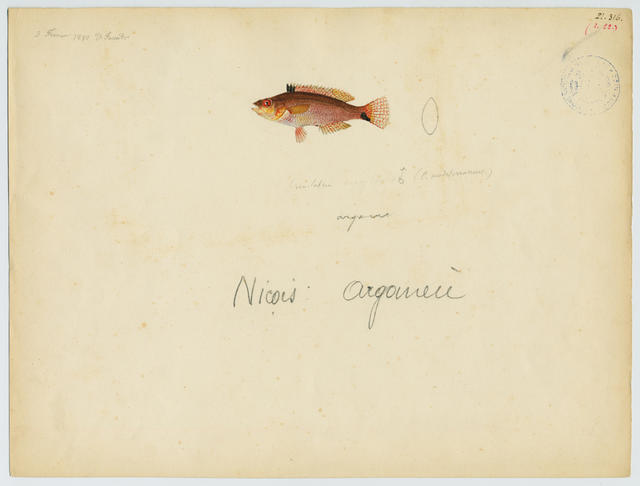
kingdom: Animalia
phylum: Chordata
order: Perciformes
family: Labridae
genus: Symphodus
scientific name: Symphodus cinereus
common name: Grey wrasse
